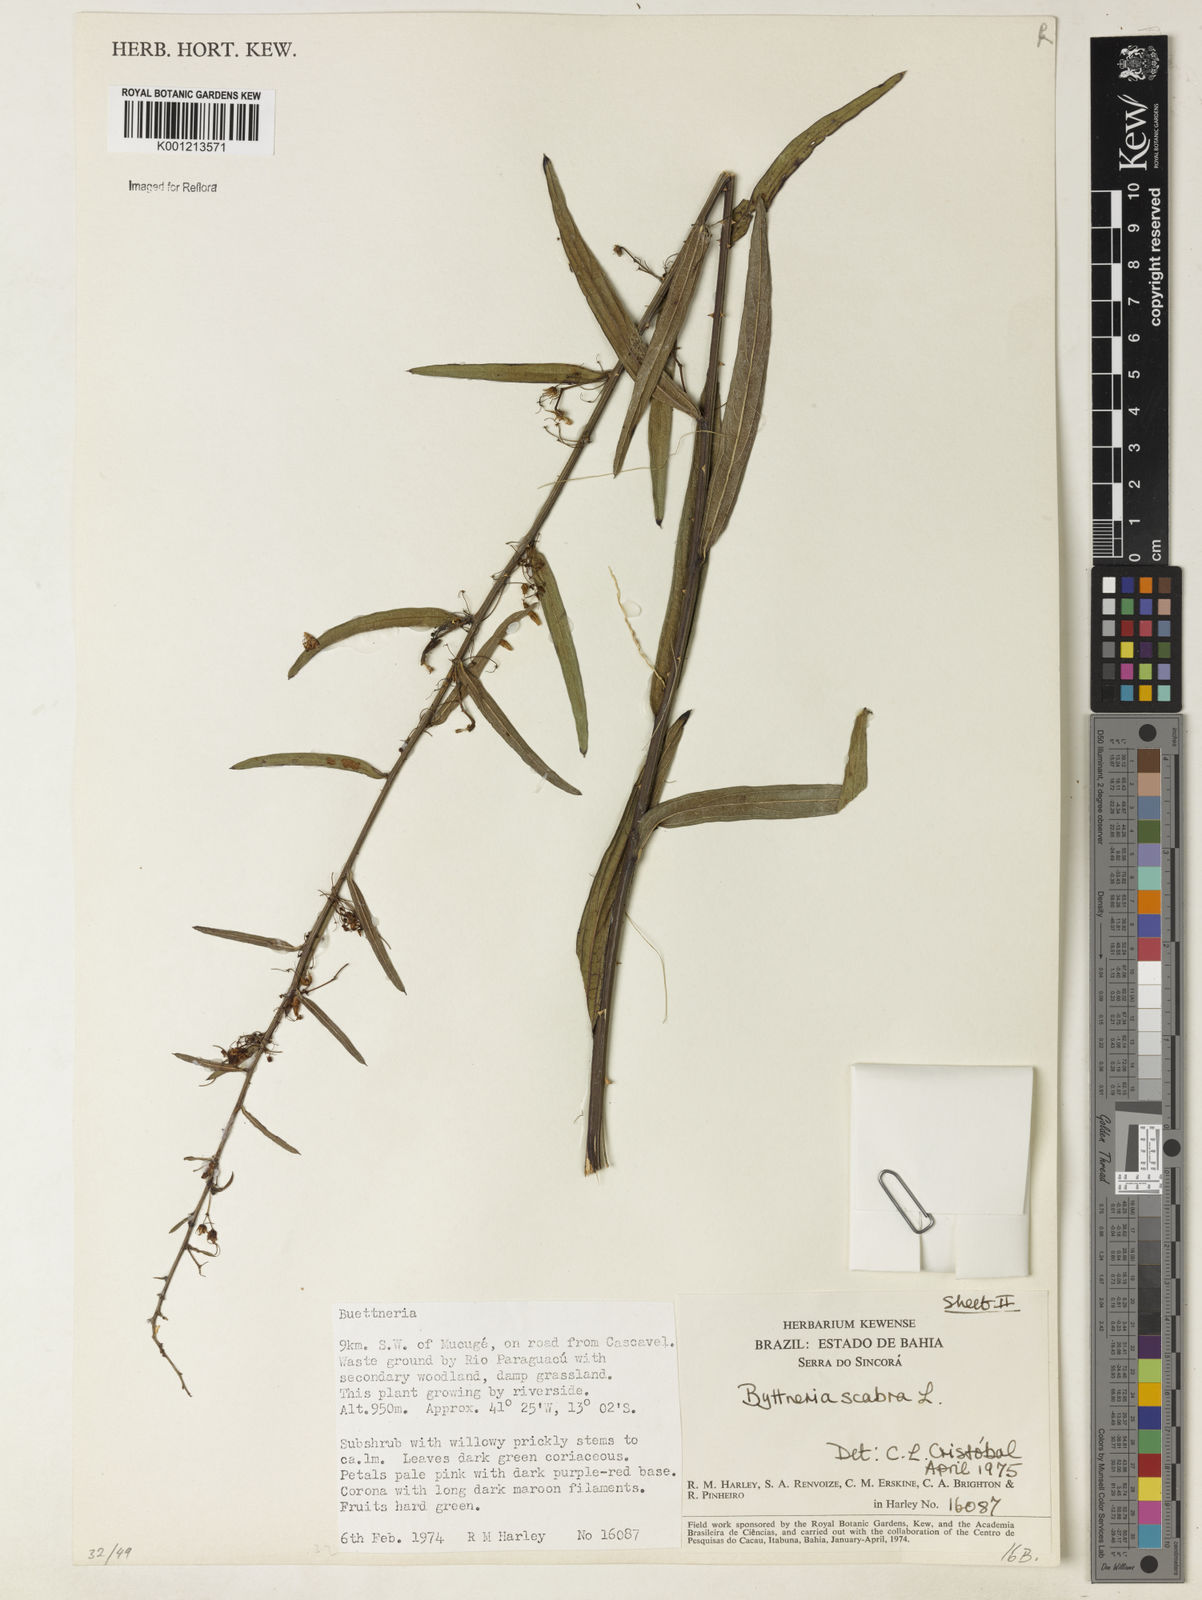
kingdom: Plantae
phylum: Tracheophyta
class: Magnoliopsida
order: Malvales
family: Malvaceae
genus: Byttneria
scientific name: Byttneria
